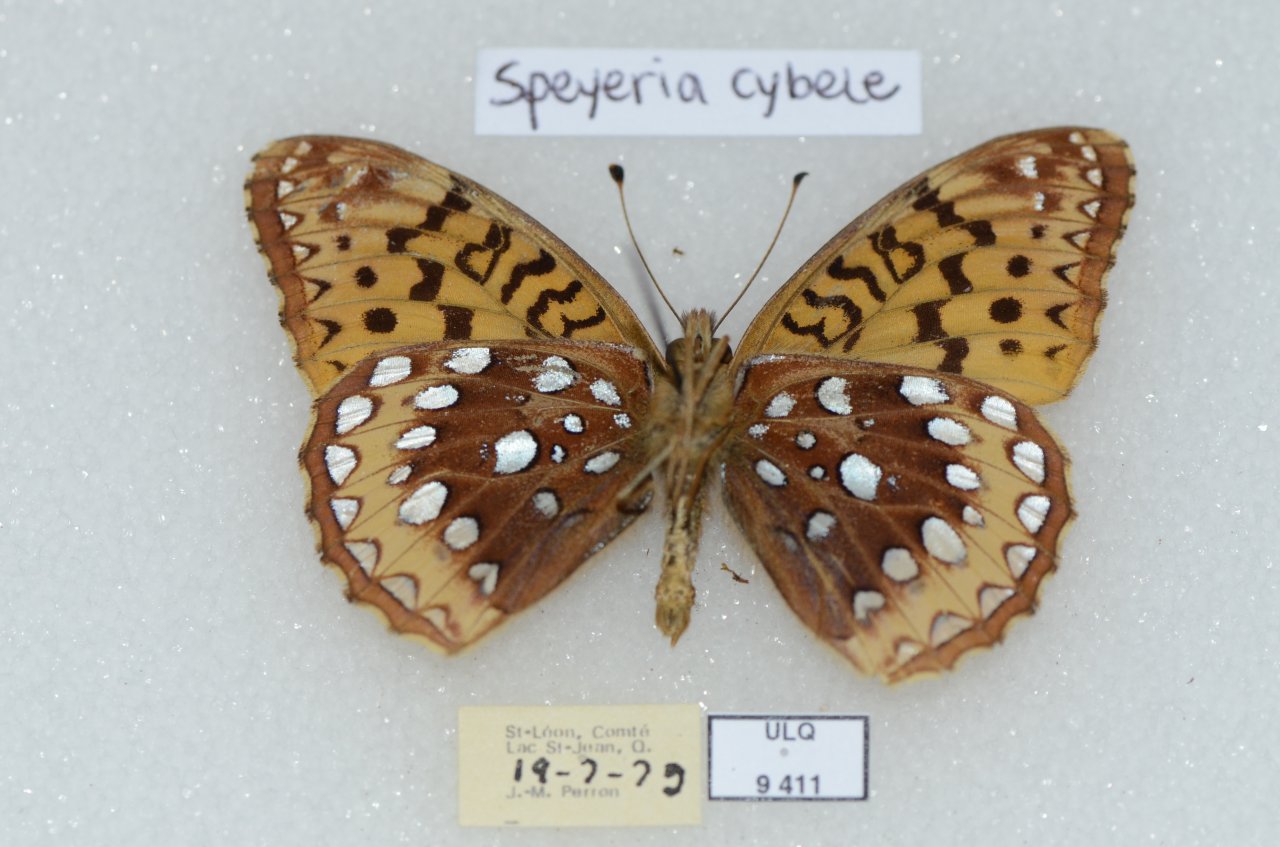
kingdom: Animalia
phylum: Arthropoda
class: Insecta
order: Lepidoptera
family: Nymphalidae
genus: Speyeria
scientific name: Speyeria cybele
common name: Great Spangled Fritillary
